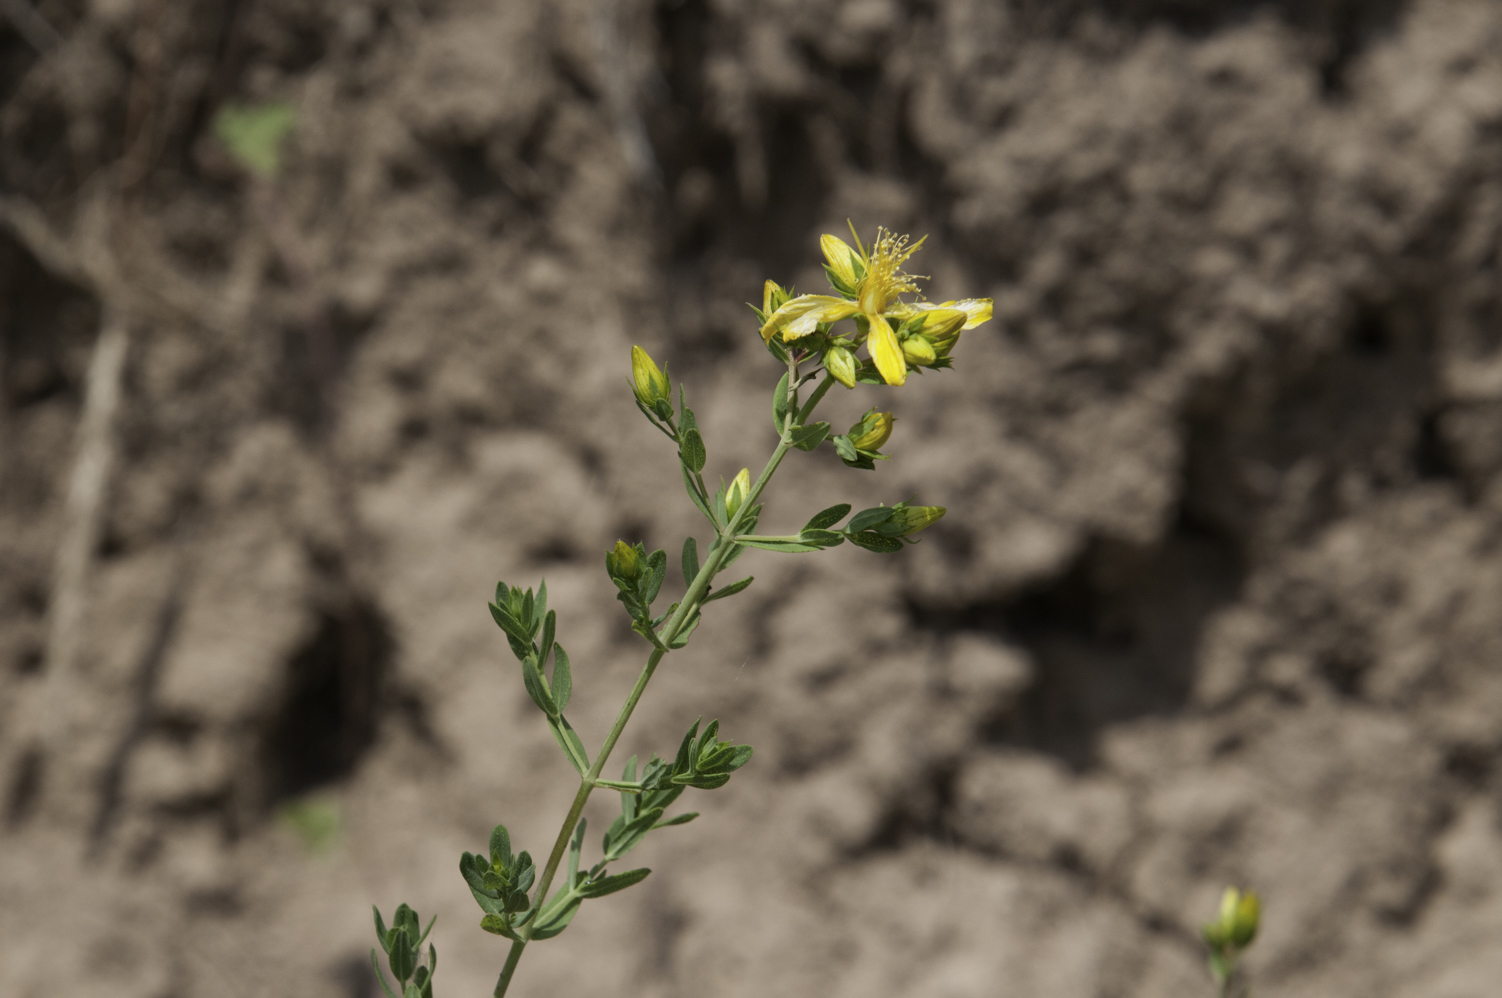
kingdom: Plantae
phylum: Tracheophyta
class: Magnoliopsida
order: Malpighiales
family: Hypericaceae
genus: Hypericum
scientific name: Hypericum elegans
